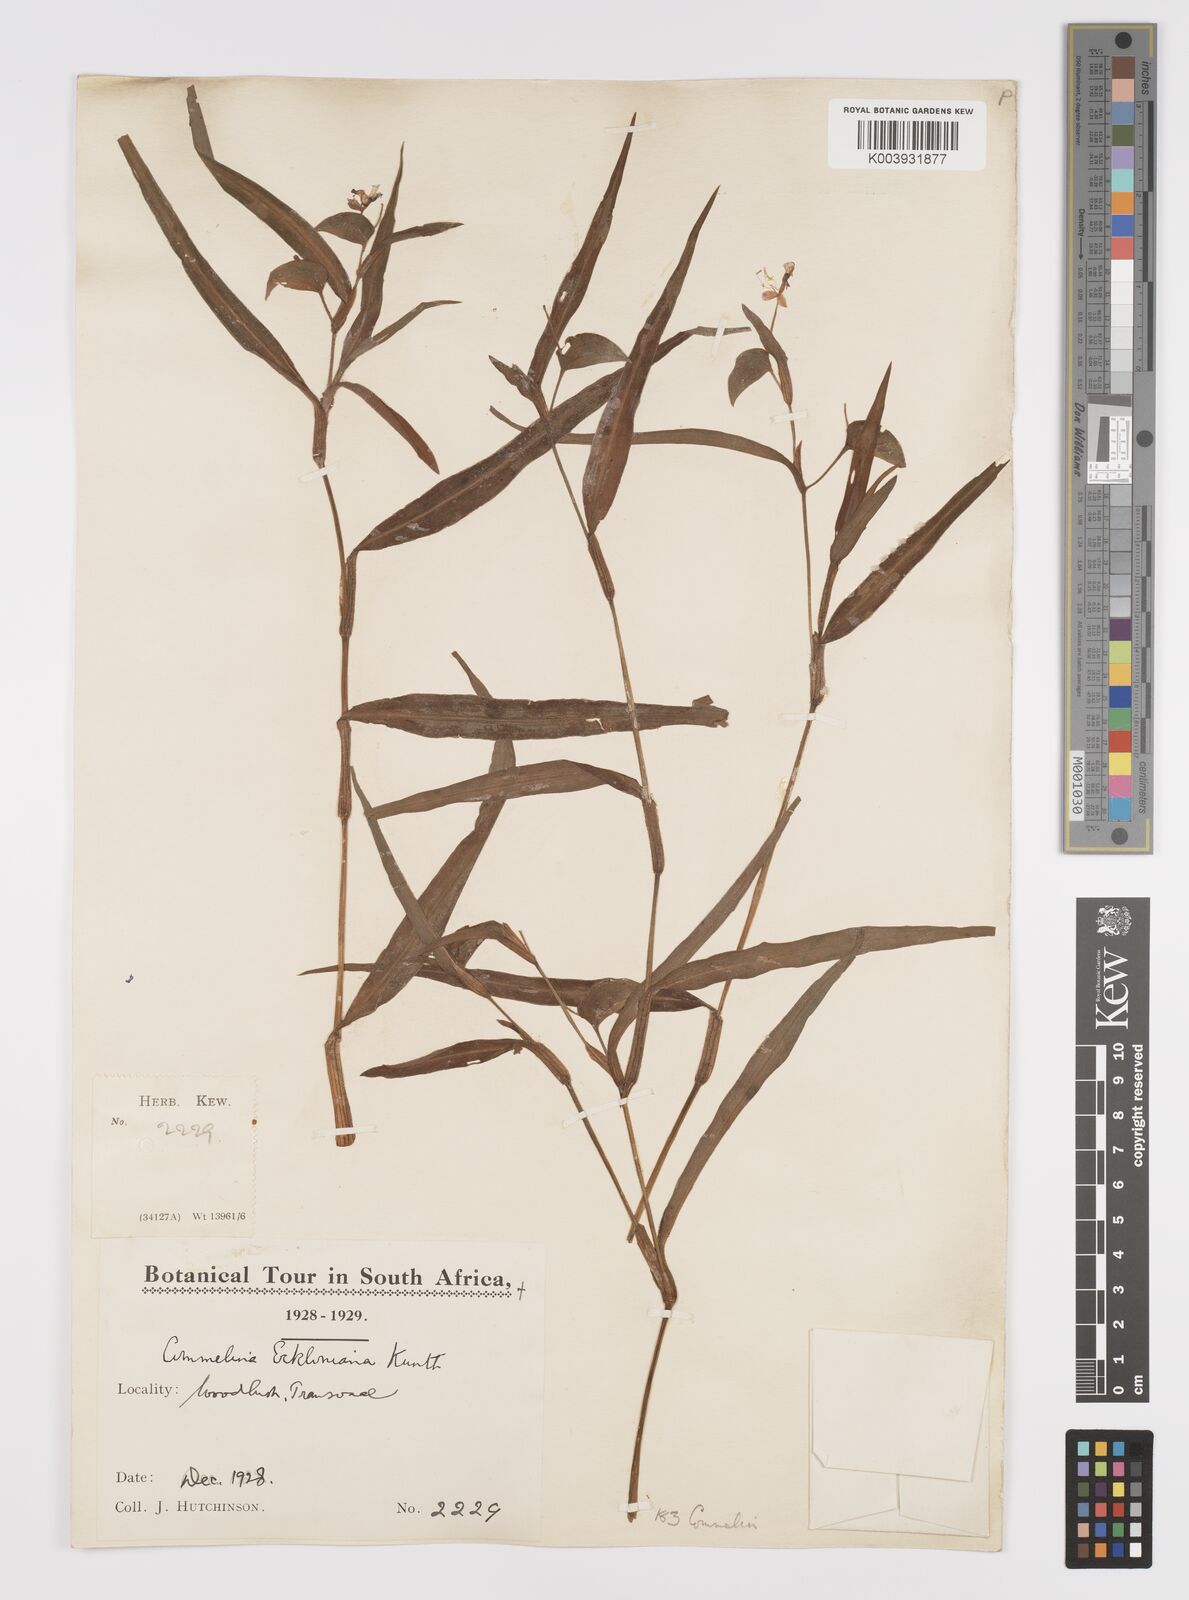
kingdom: Plantae
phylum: Tracheophyta
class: Liliopsida
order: Commelinales
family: Commelinaceae
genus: Commelina
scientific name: Commelina eckloniana
